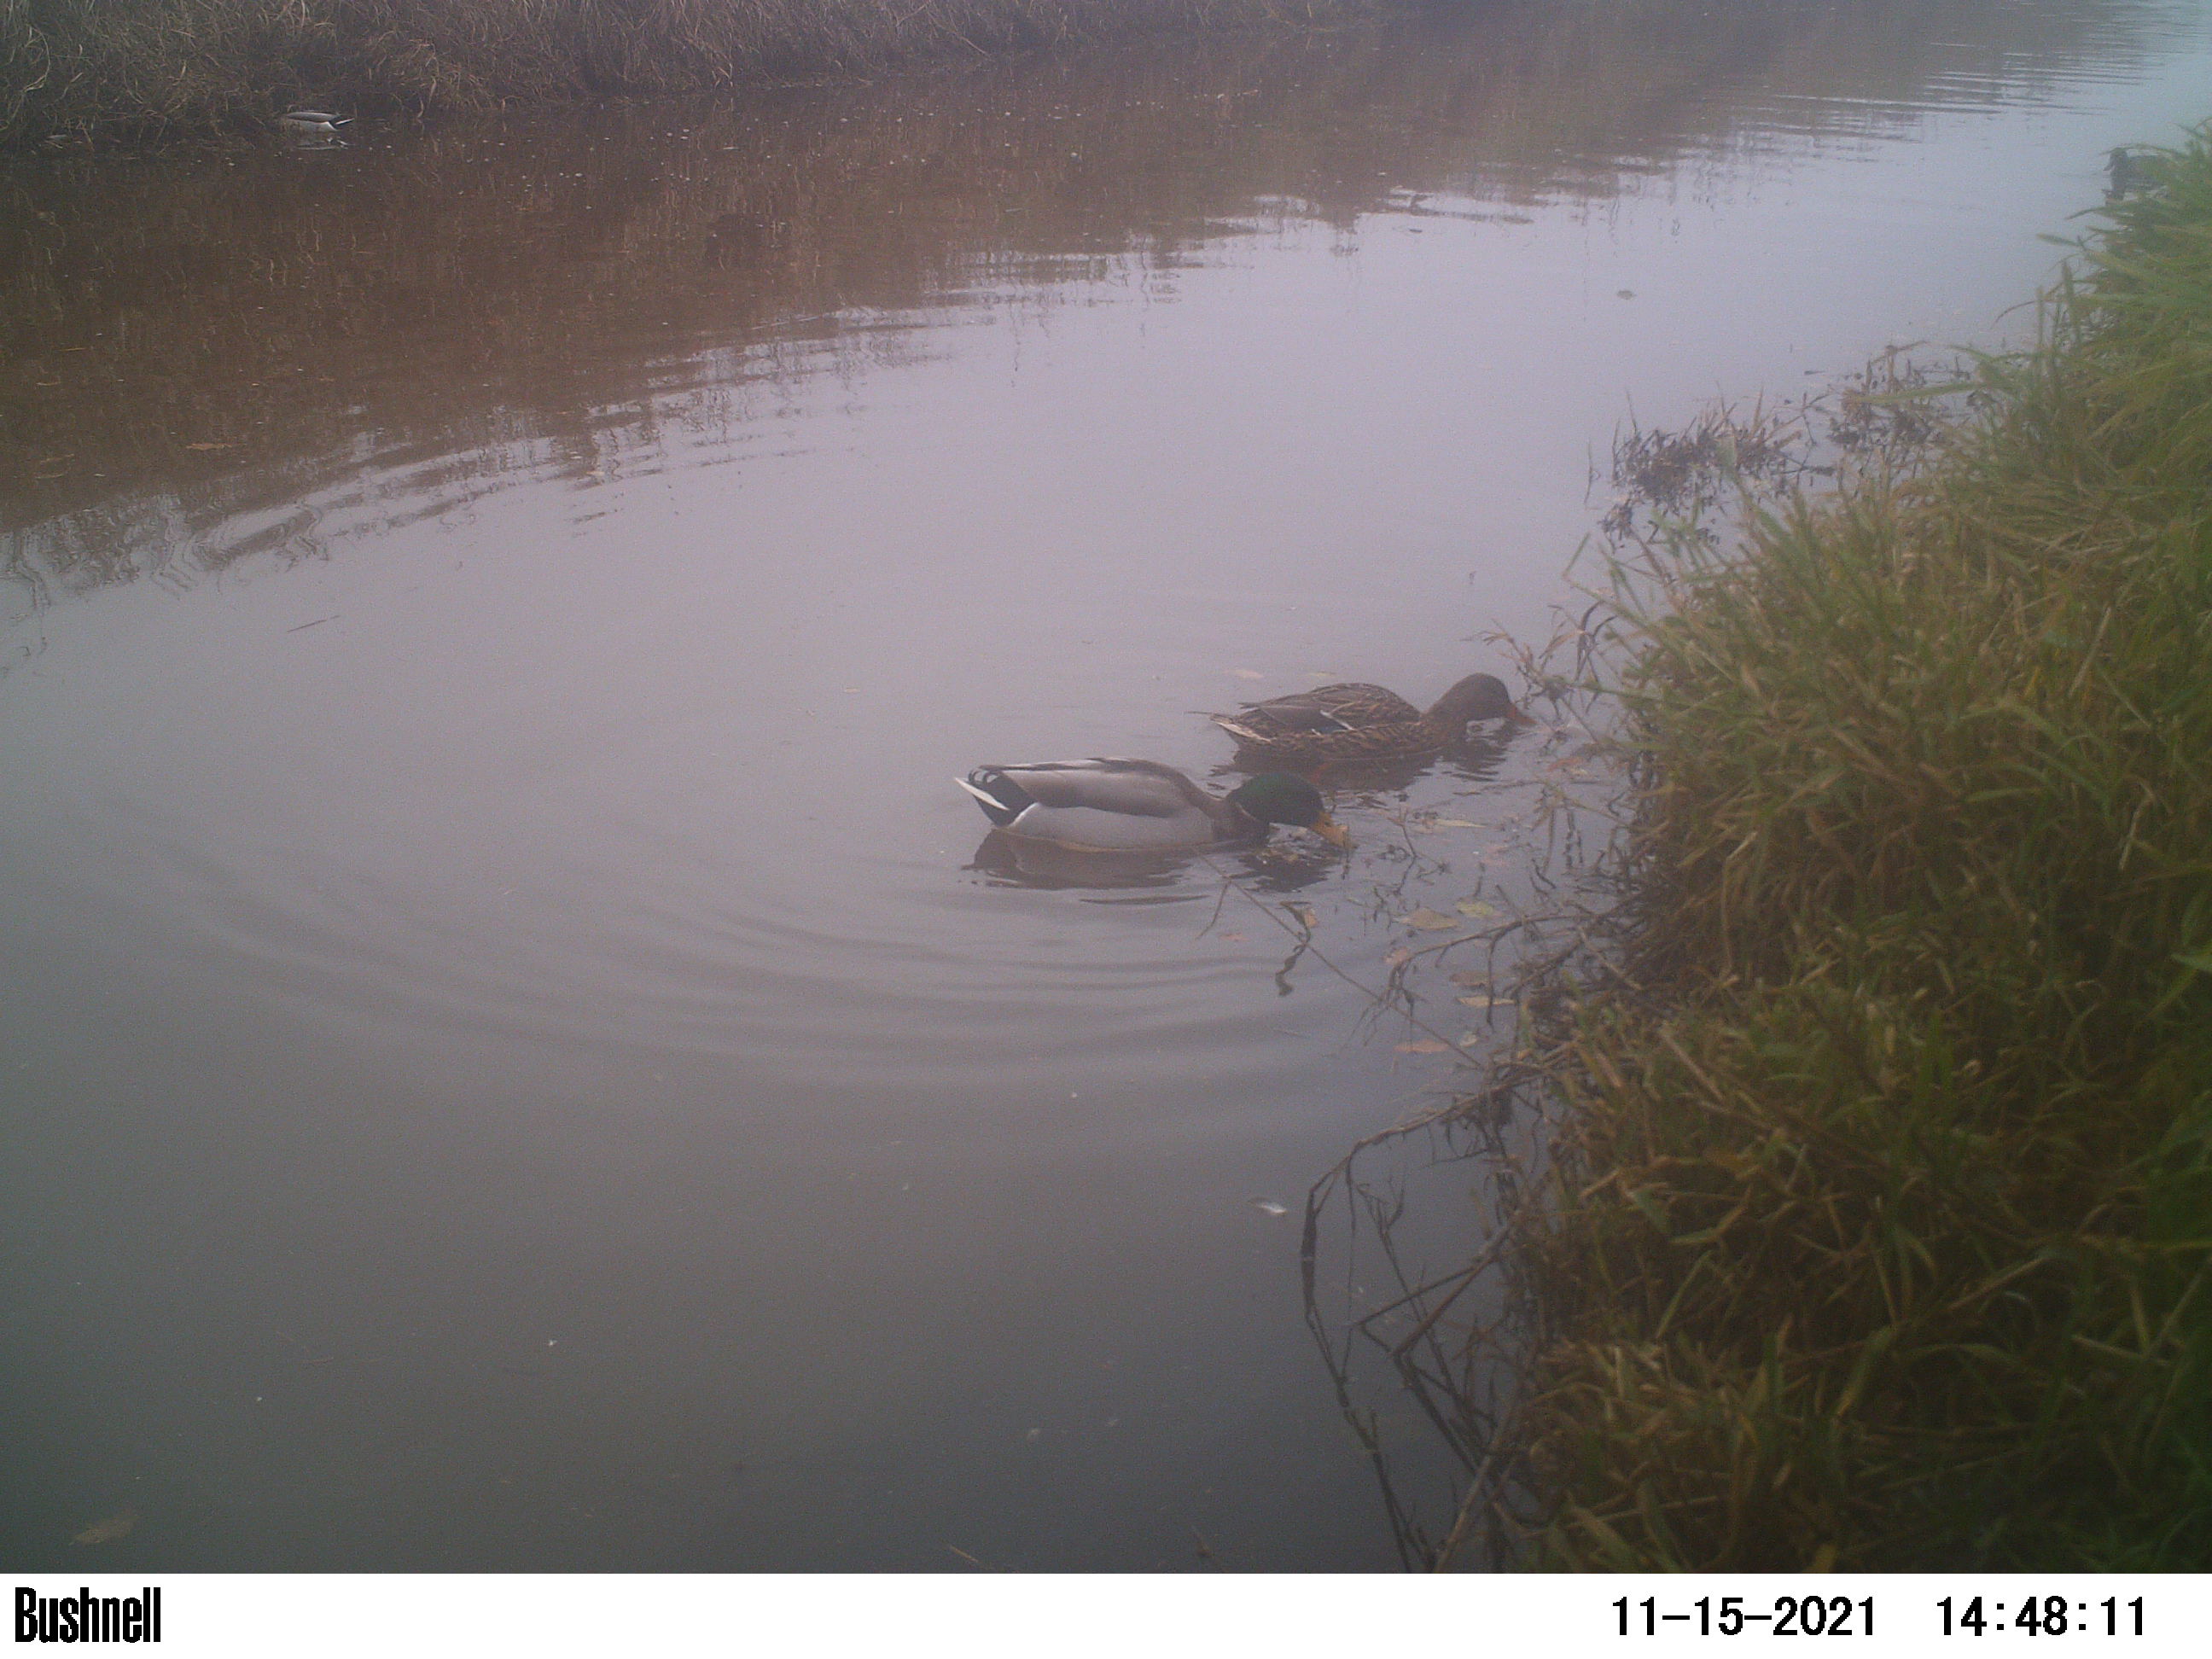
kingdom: Animalia
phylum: Chordata
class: Aves
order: Anseriformes
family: Anatidae
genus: Anas
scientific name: Anas
